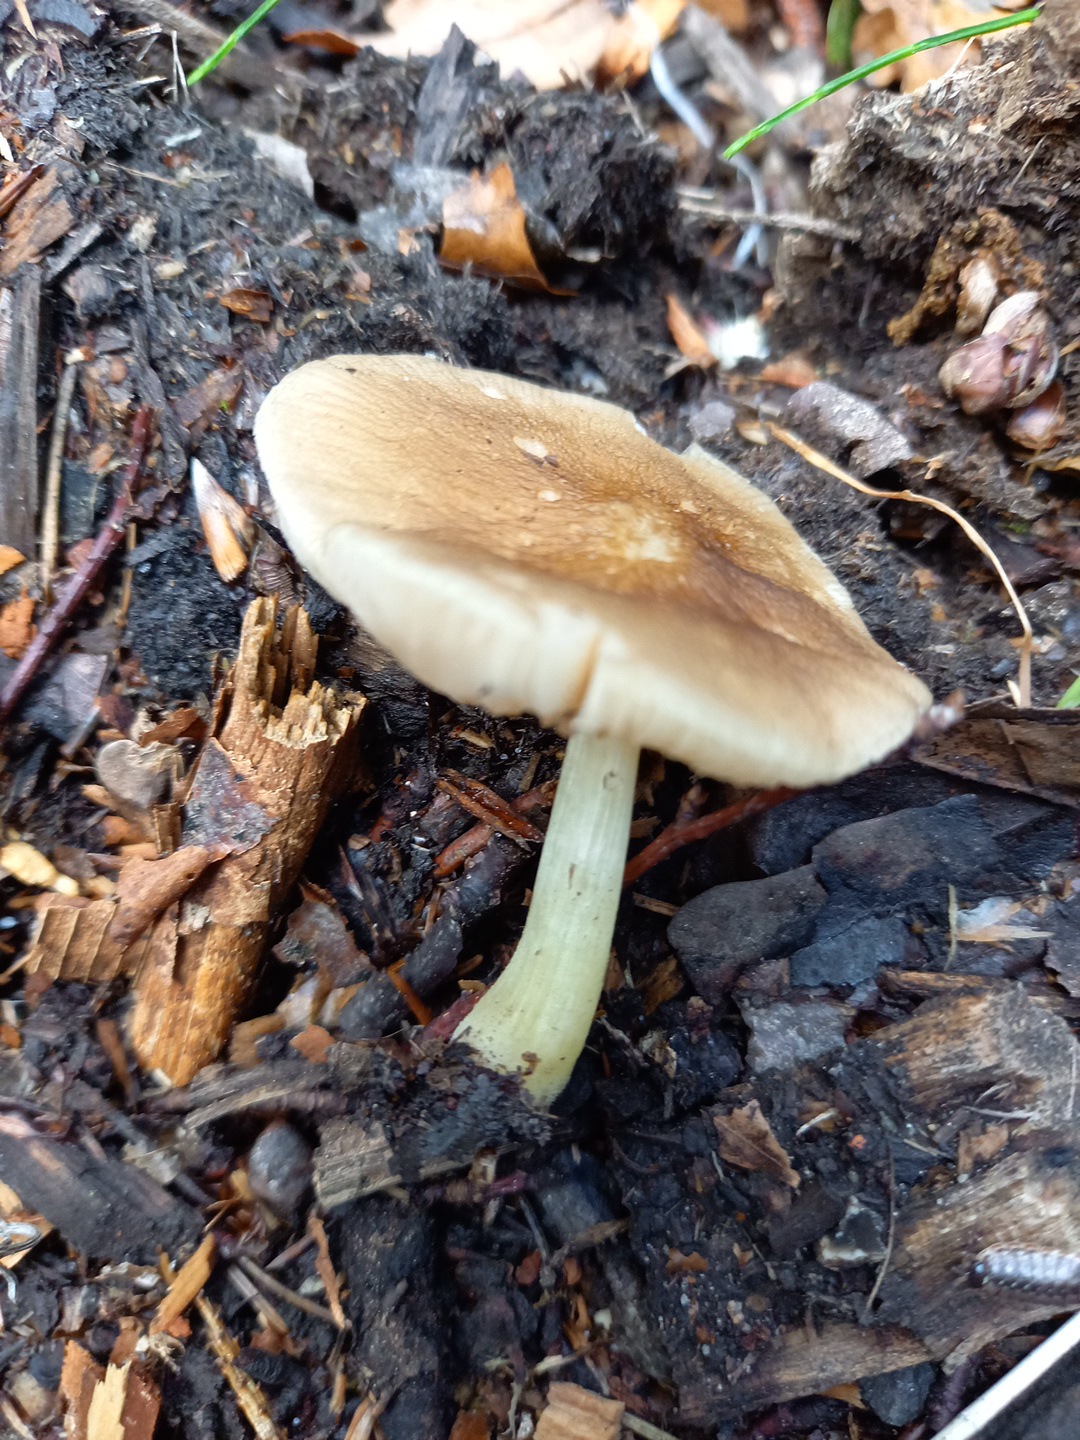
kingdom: Fungi
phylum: Basidiomycota
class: Agaricomycetes
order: Agaricales
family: Pluteaceae
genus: Pluteus
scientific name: Pluteus romellii
